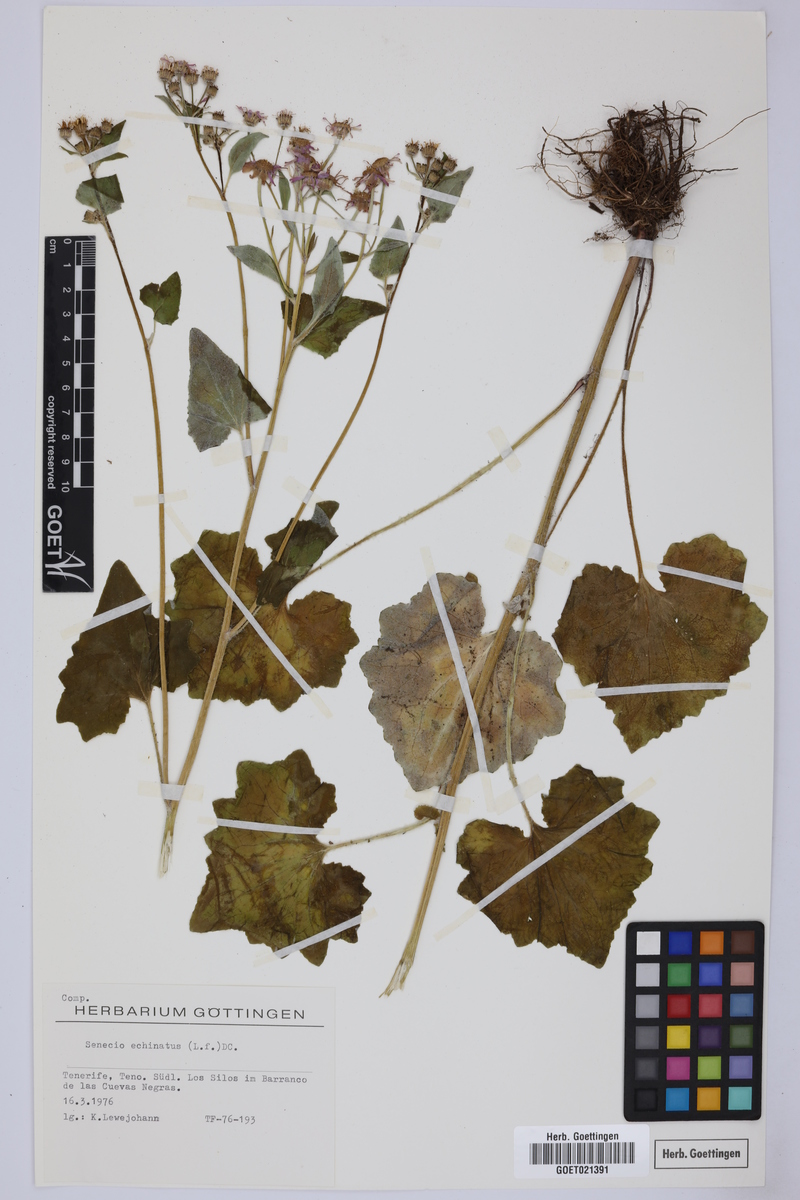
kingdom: Plantae
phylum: Tracheophyta
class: Magnoliopsida
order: Asterales
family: Asteraceae
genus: Pericallis
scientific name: Pericallis echinata
